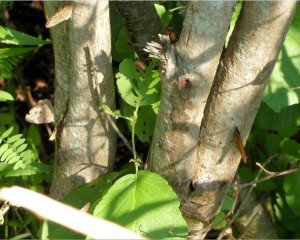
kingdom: Animalia
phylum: Arthropoda
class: Insecta
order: Lepidoptera
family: Nymphalidae
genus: Lethe
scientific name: Lethe anthedon
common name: Northern Pearly-Eye
